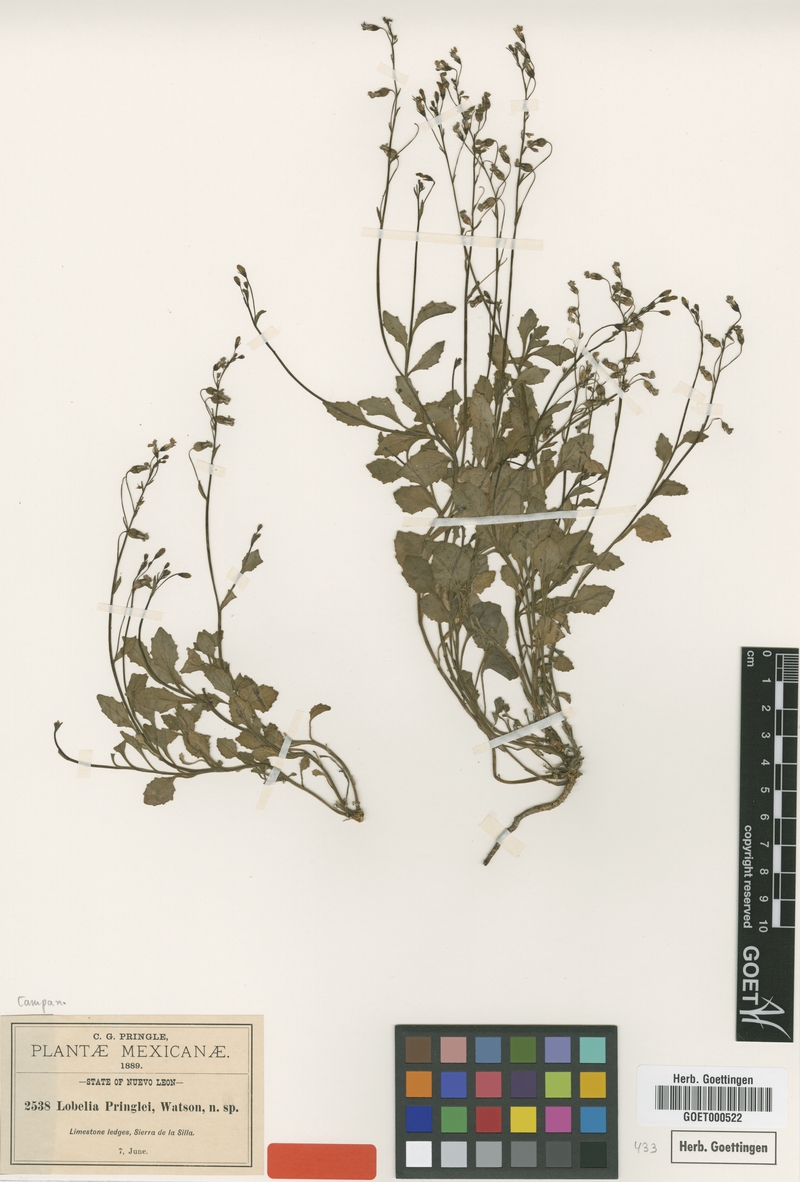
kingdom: Plantae
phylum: Tracheophyta
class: Magnoliopsida
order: Asterales
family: Campanulaceae
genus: Lobelia
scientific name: Lobelia pringlei
